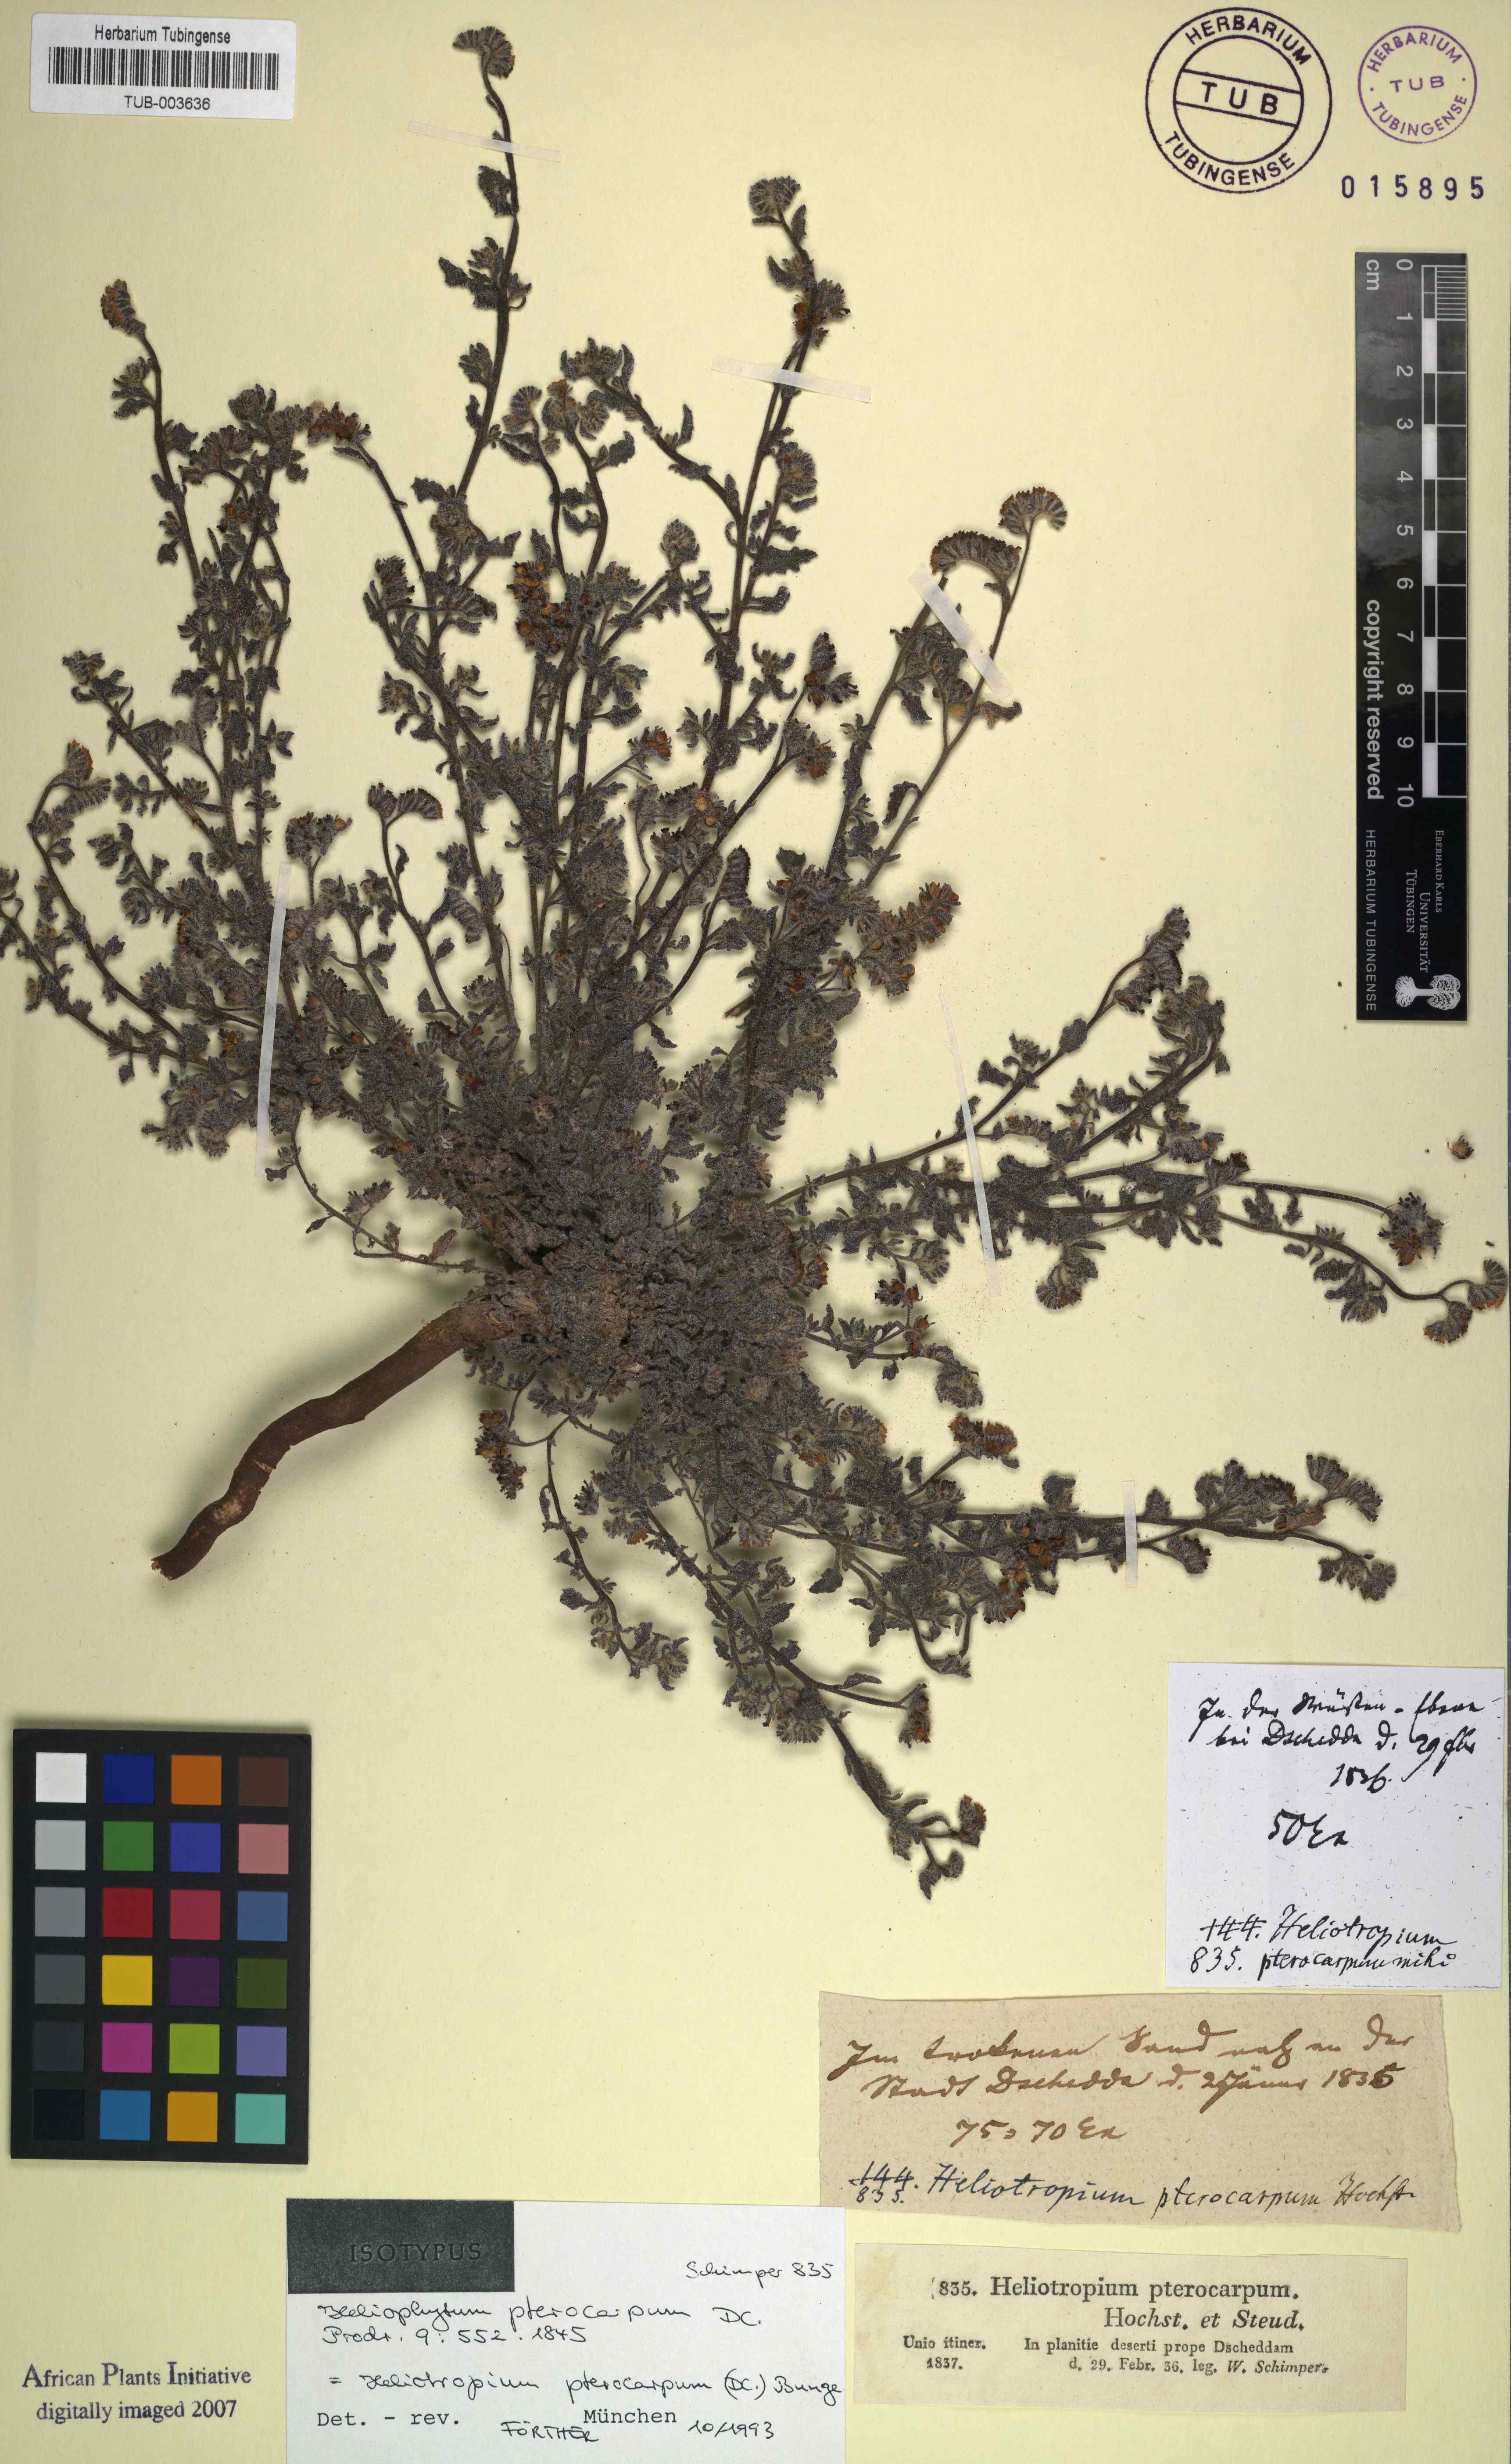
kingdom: Plantae
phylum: Tracheophyta
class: Magnoliopsida
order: Boraginales
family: Heliotropiaceae
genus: Heliotropium
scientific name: Heliotropium pterocarpum
